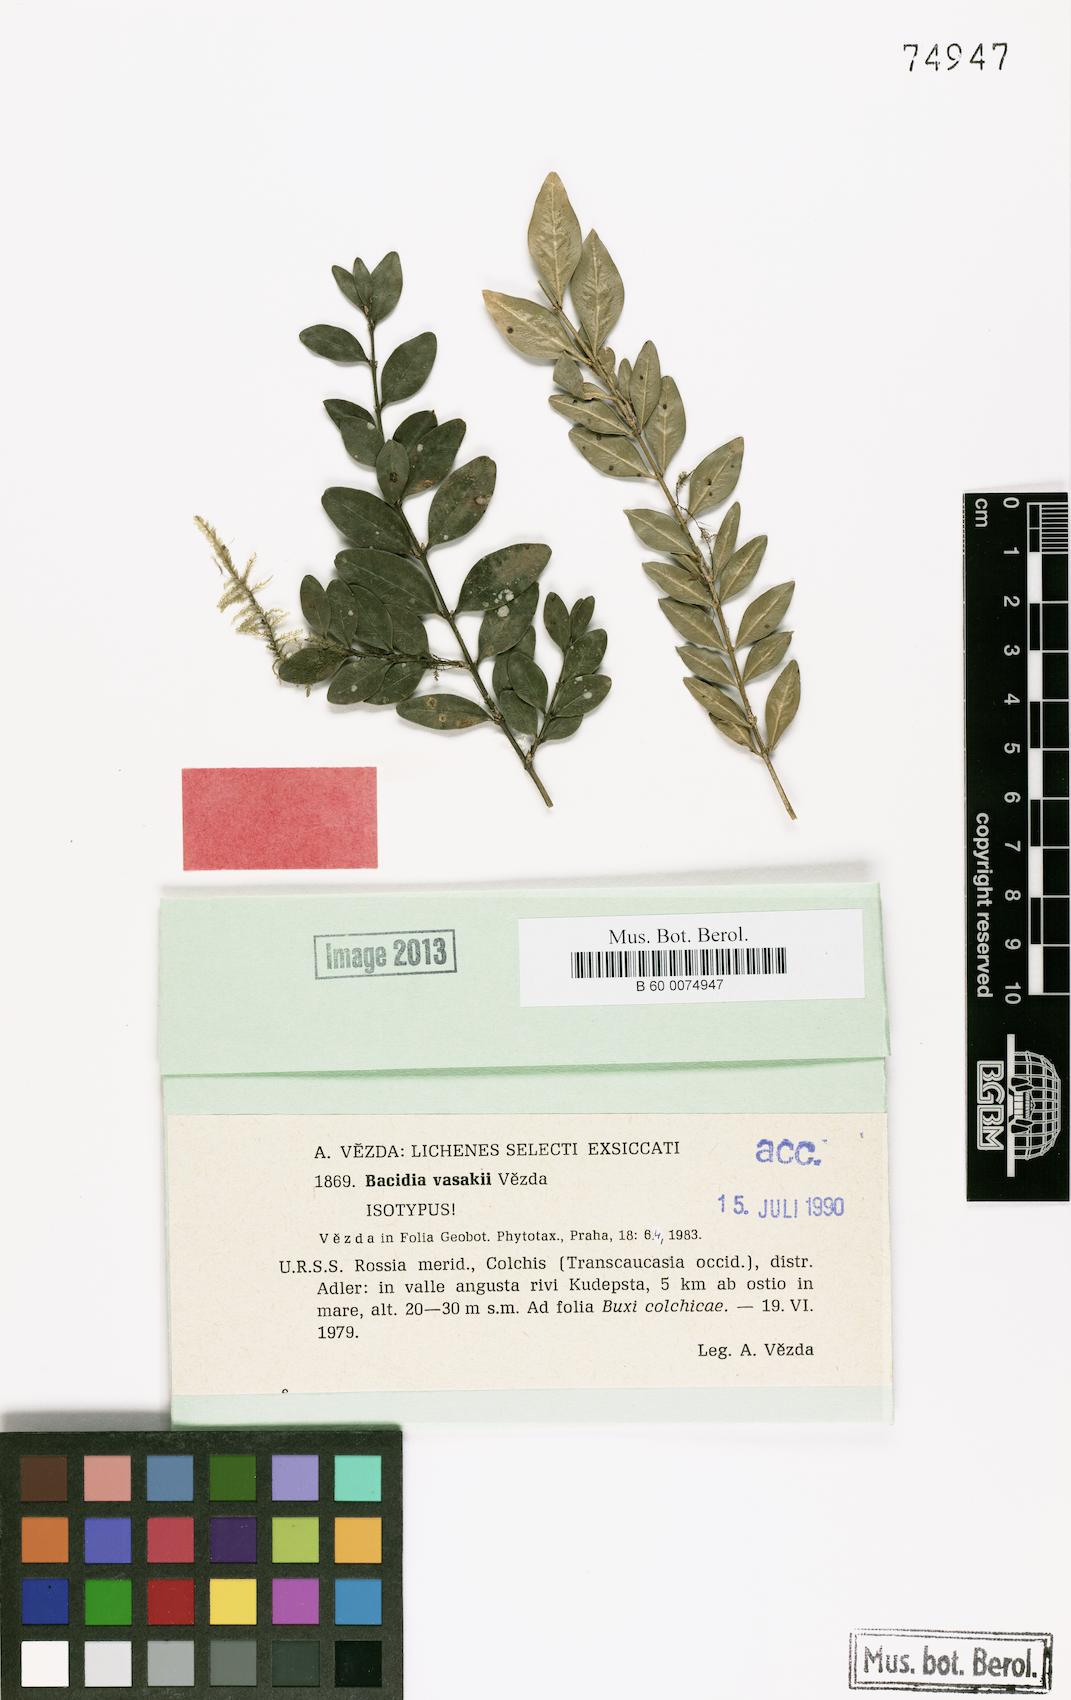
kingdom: Fungi
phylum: Ascomycota
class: Lecanoromycetes
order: Lecanorales
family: Ramalinaceae
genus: Bacidina
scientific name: Bacidina vasakii
